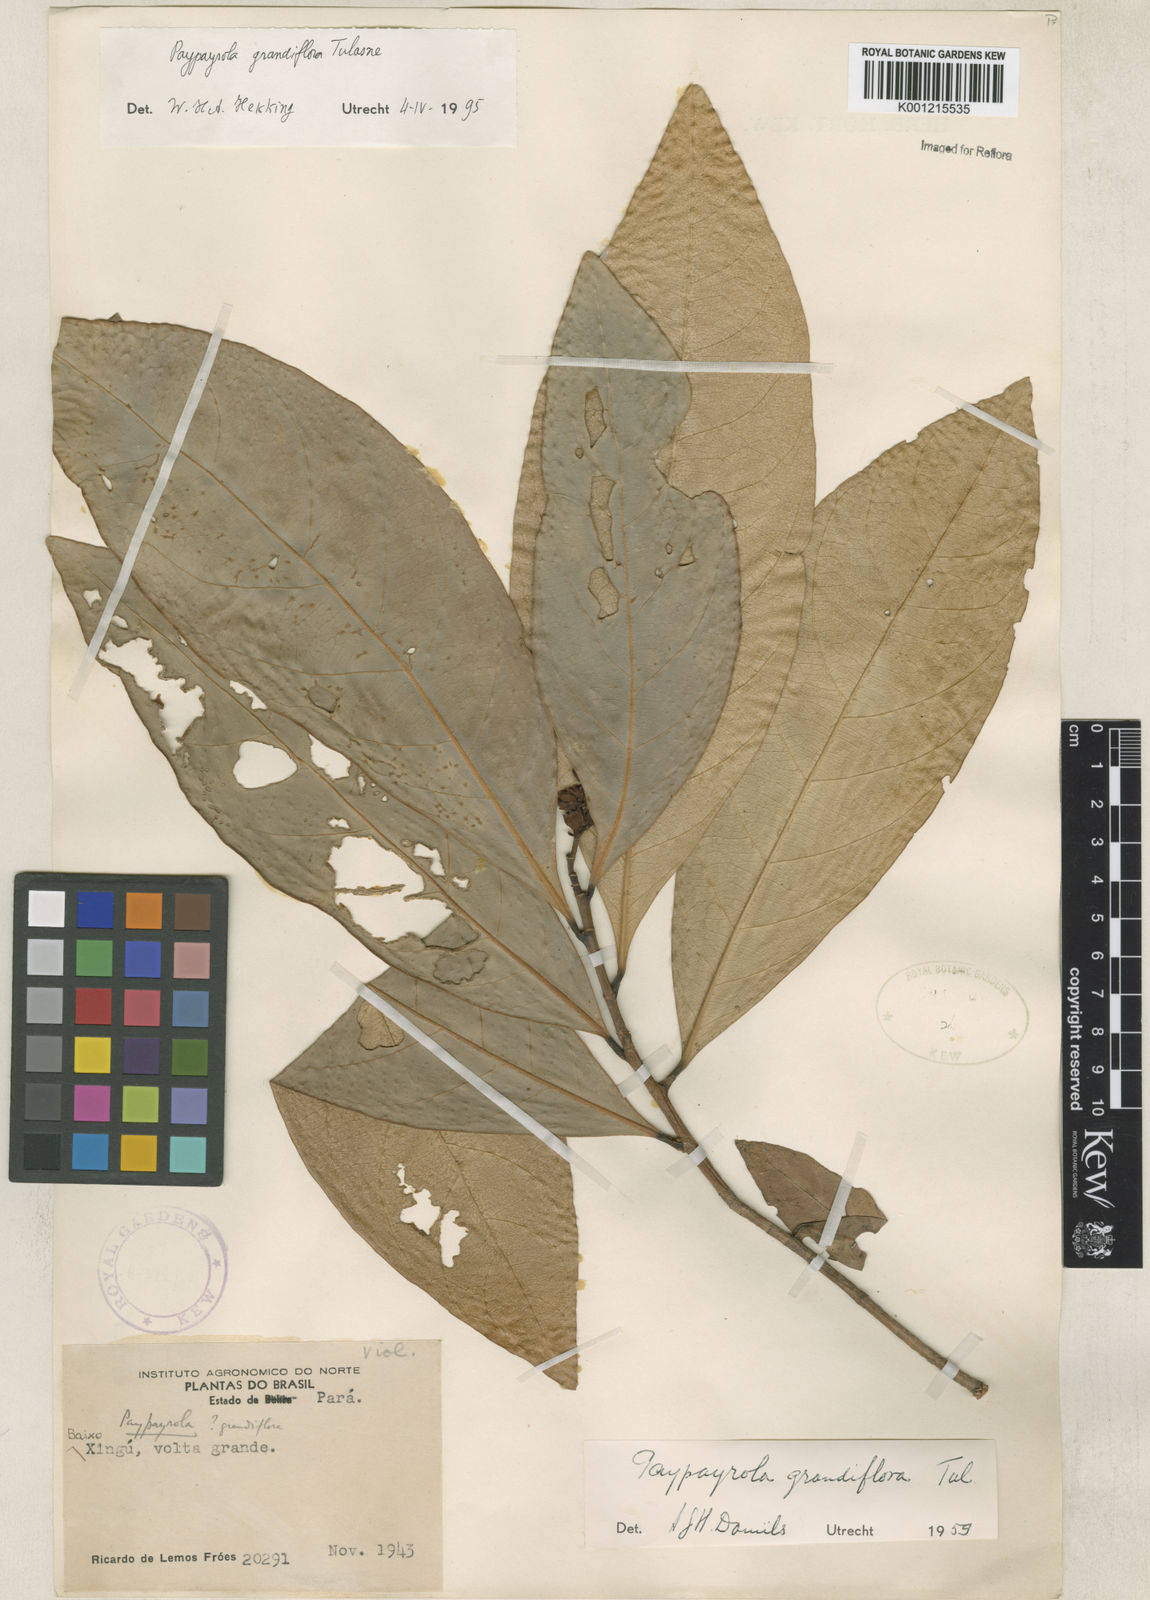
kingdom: Plantae
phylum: Tracheophyta
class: Magnoliopsida
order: Malpighiales
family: Violaceae
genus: Paypayrola
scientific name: Paypayrola grandiflora
